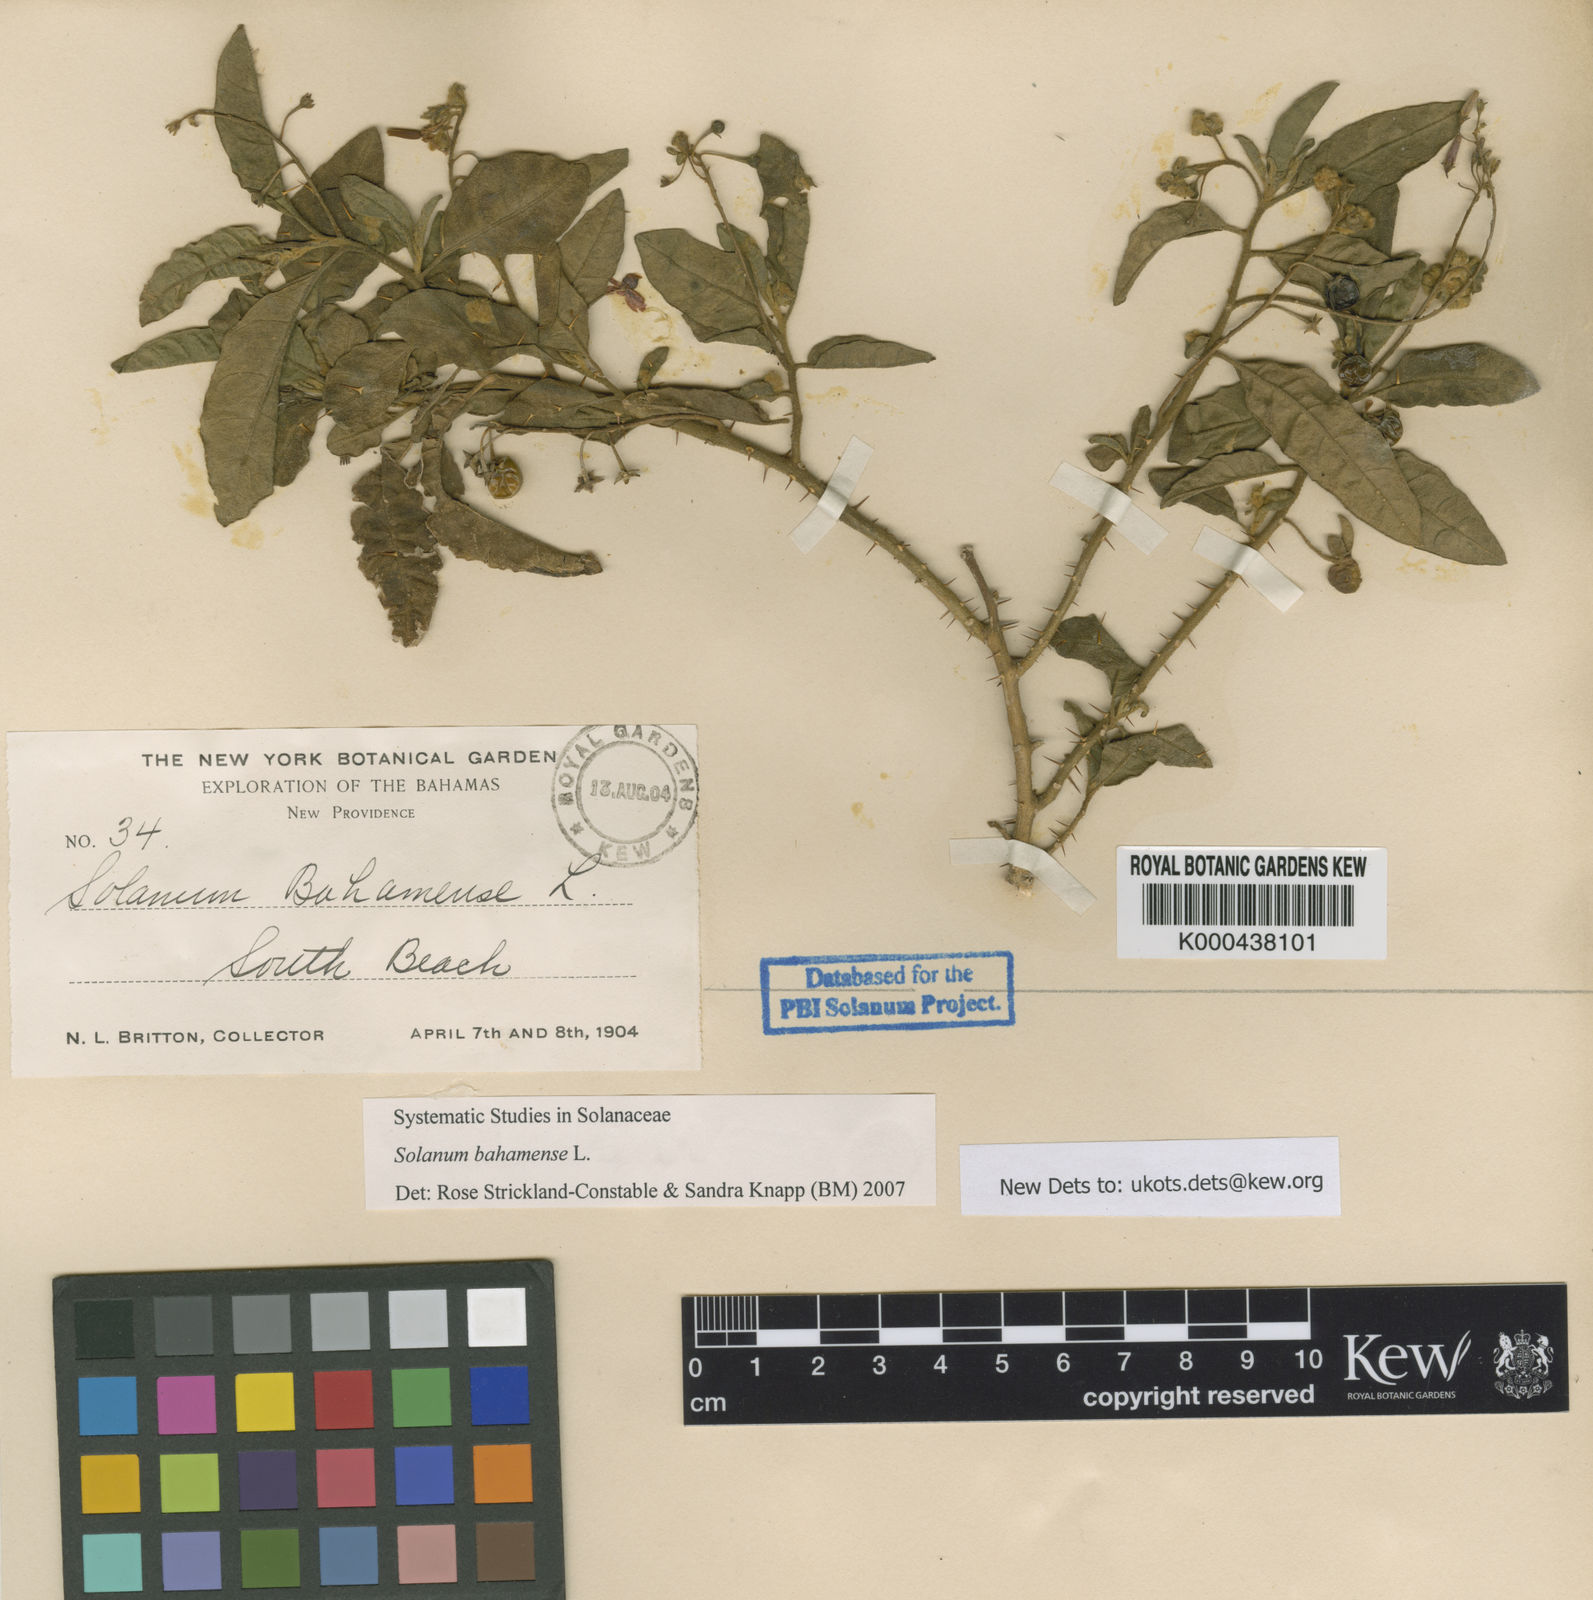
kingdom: Plantae
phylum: Tracheophyta
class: Magnoliopsida
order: Solanales
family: Solanaceae
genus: Solanum
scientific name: Solanum bahamense
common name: Canker-berry
